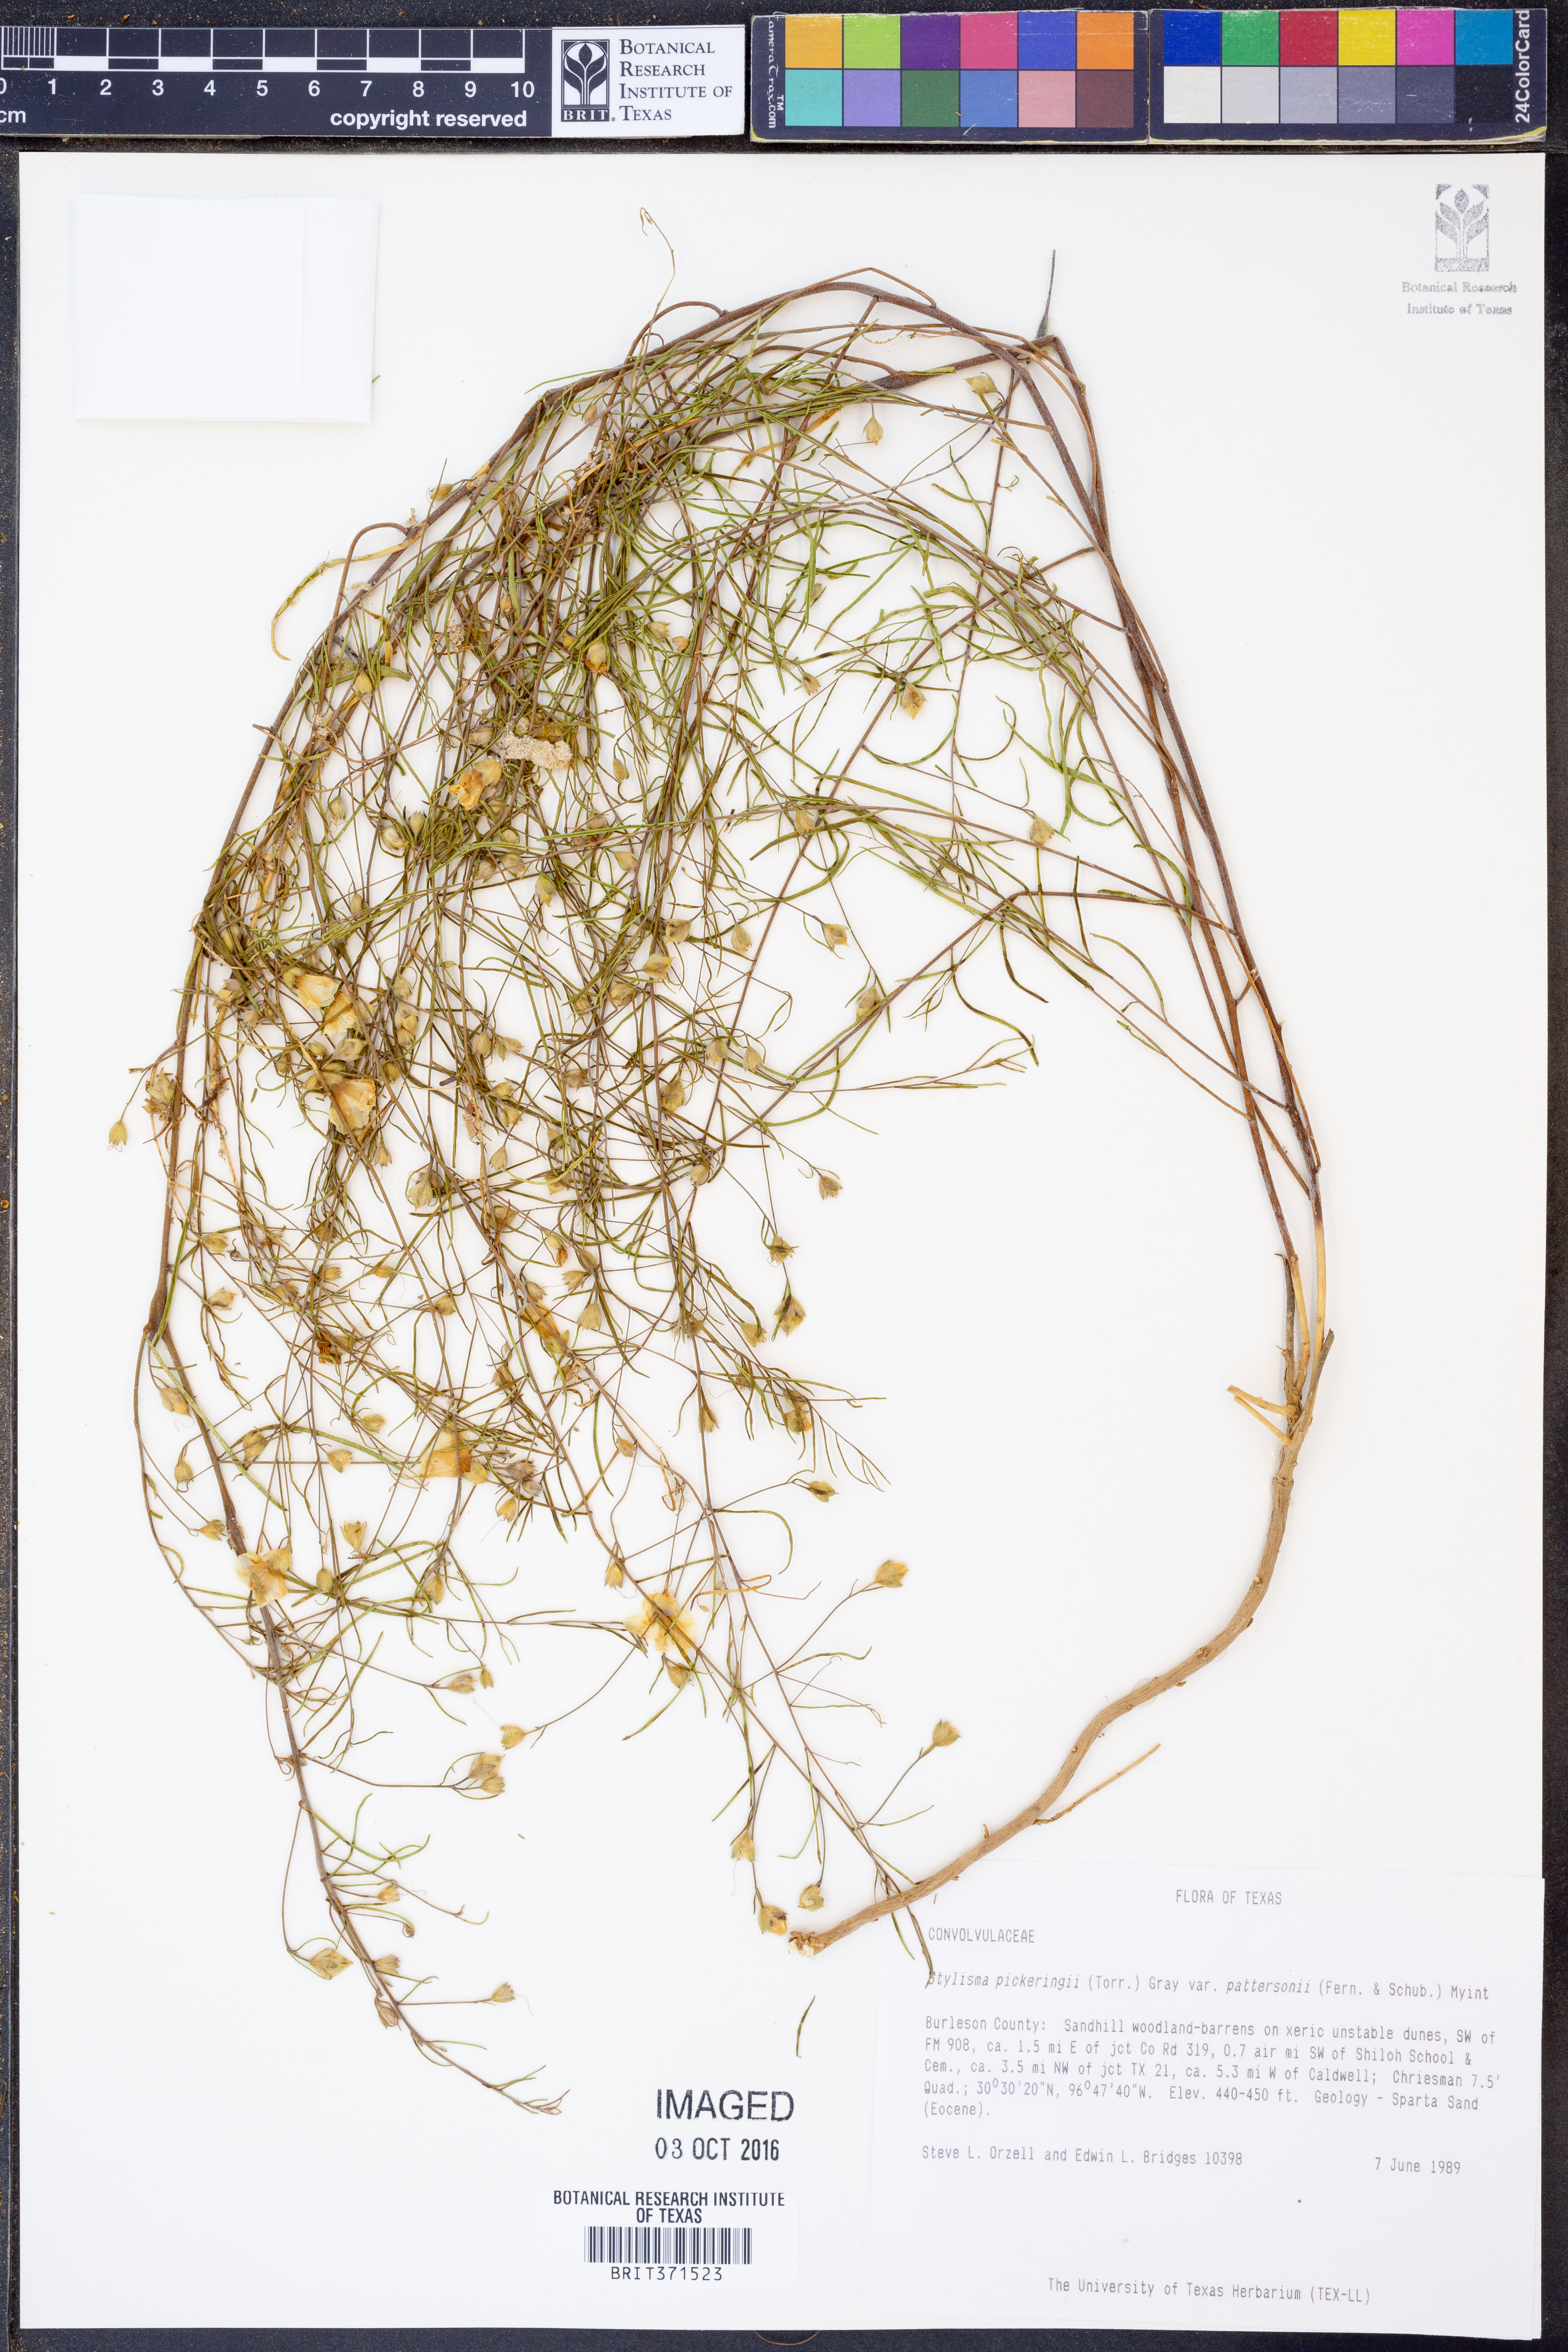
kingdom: Plantae
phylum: Tracheophyta
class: Magnoliopsida
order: Solanales
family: Convolvulaceae
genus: Stylisma
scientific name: Stylisma pickeringii
